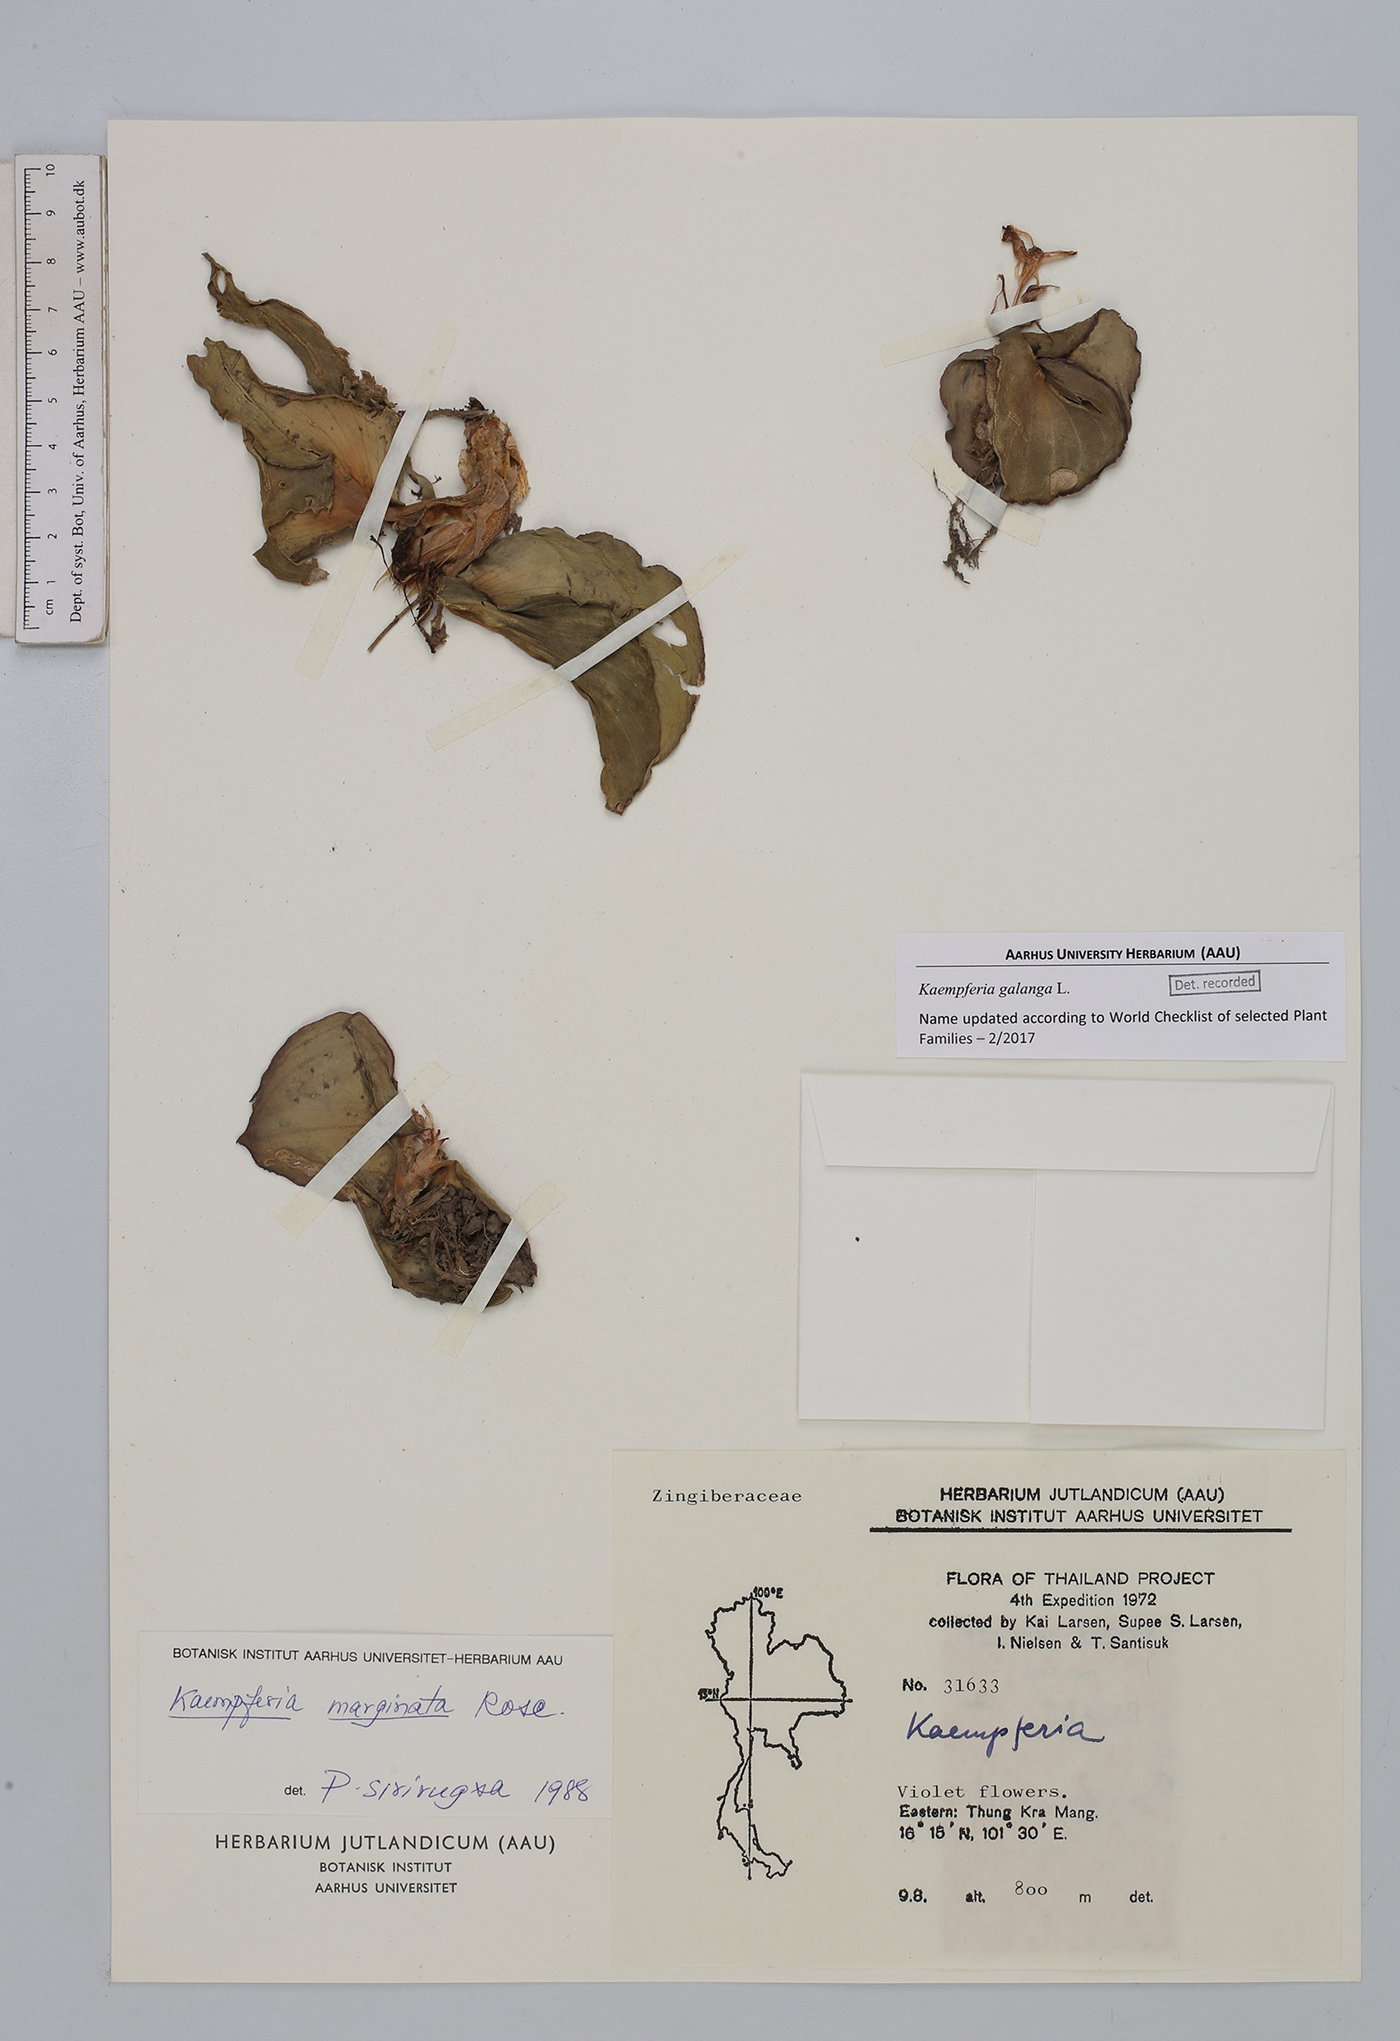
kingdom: Plantae
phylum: Tracheophyta
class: Liliopsida
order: Zingiberales
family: Zingiberaceae
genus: Kaempferia
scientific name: Kaempferia galanga
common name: Aromatic ginger
